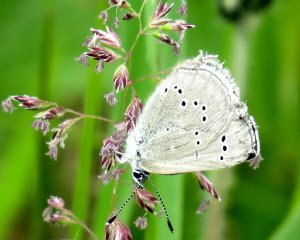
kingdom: Animalia
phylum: Arthropoda
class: Insecta
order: Lepidoptera
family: Lycaenidae
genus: Glaucopsyche
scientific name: Glaucopsyche lygdamus
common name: Silvery Blue
